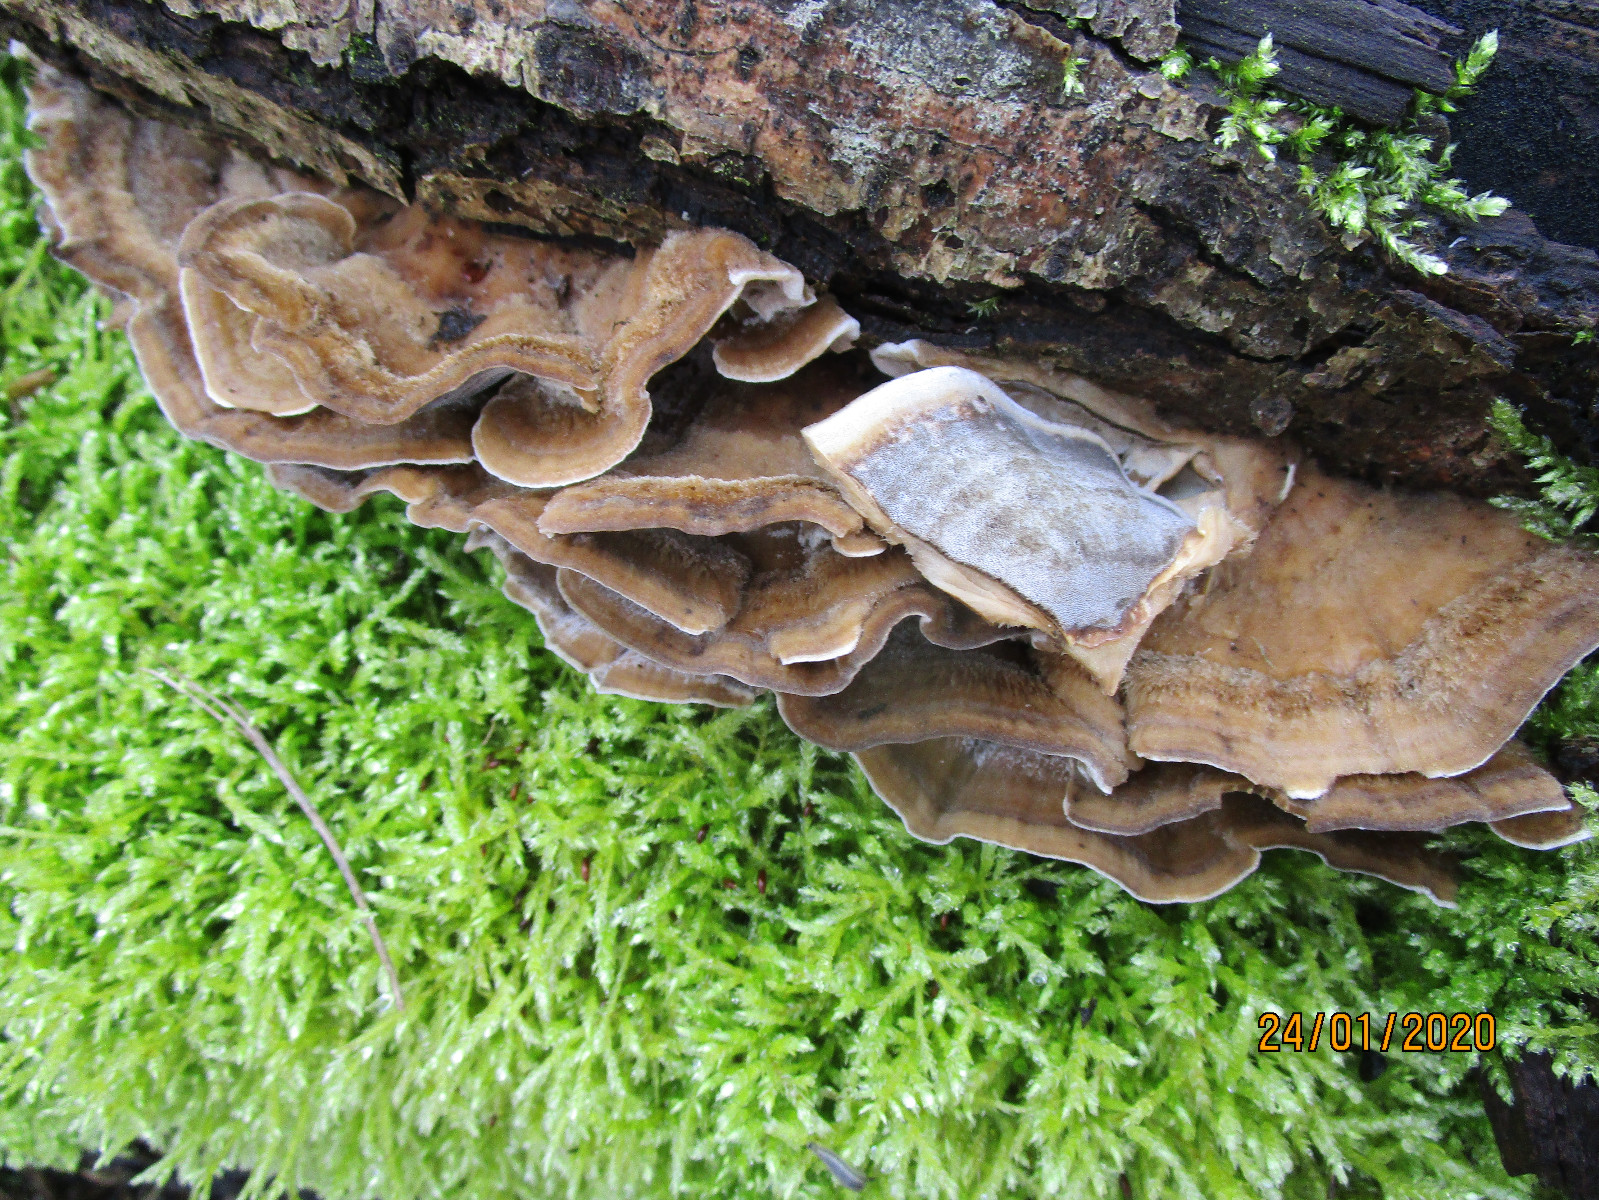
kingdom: Fungi
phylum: Basidiomycota
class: Agaricomycetes
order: Polyporales
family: Phanerochaetaceae
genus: Bjerkandera
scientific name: Bjerkandera adusta
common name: sveden sodporesvamp
